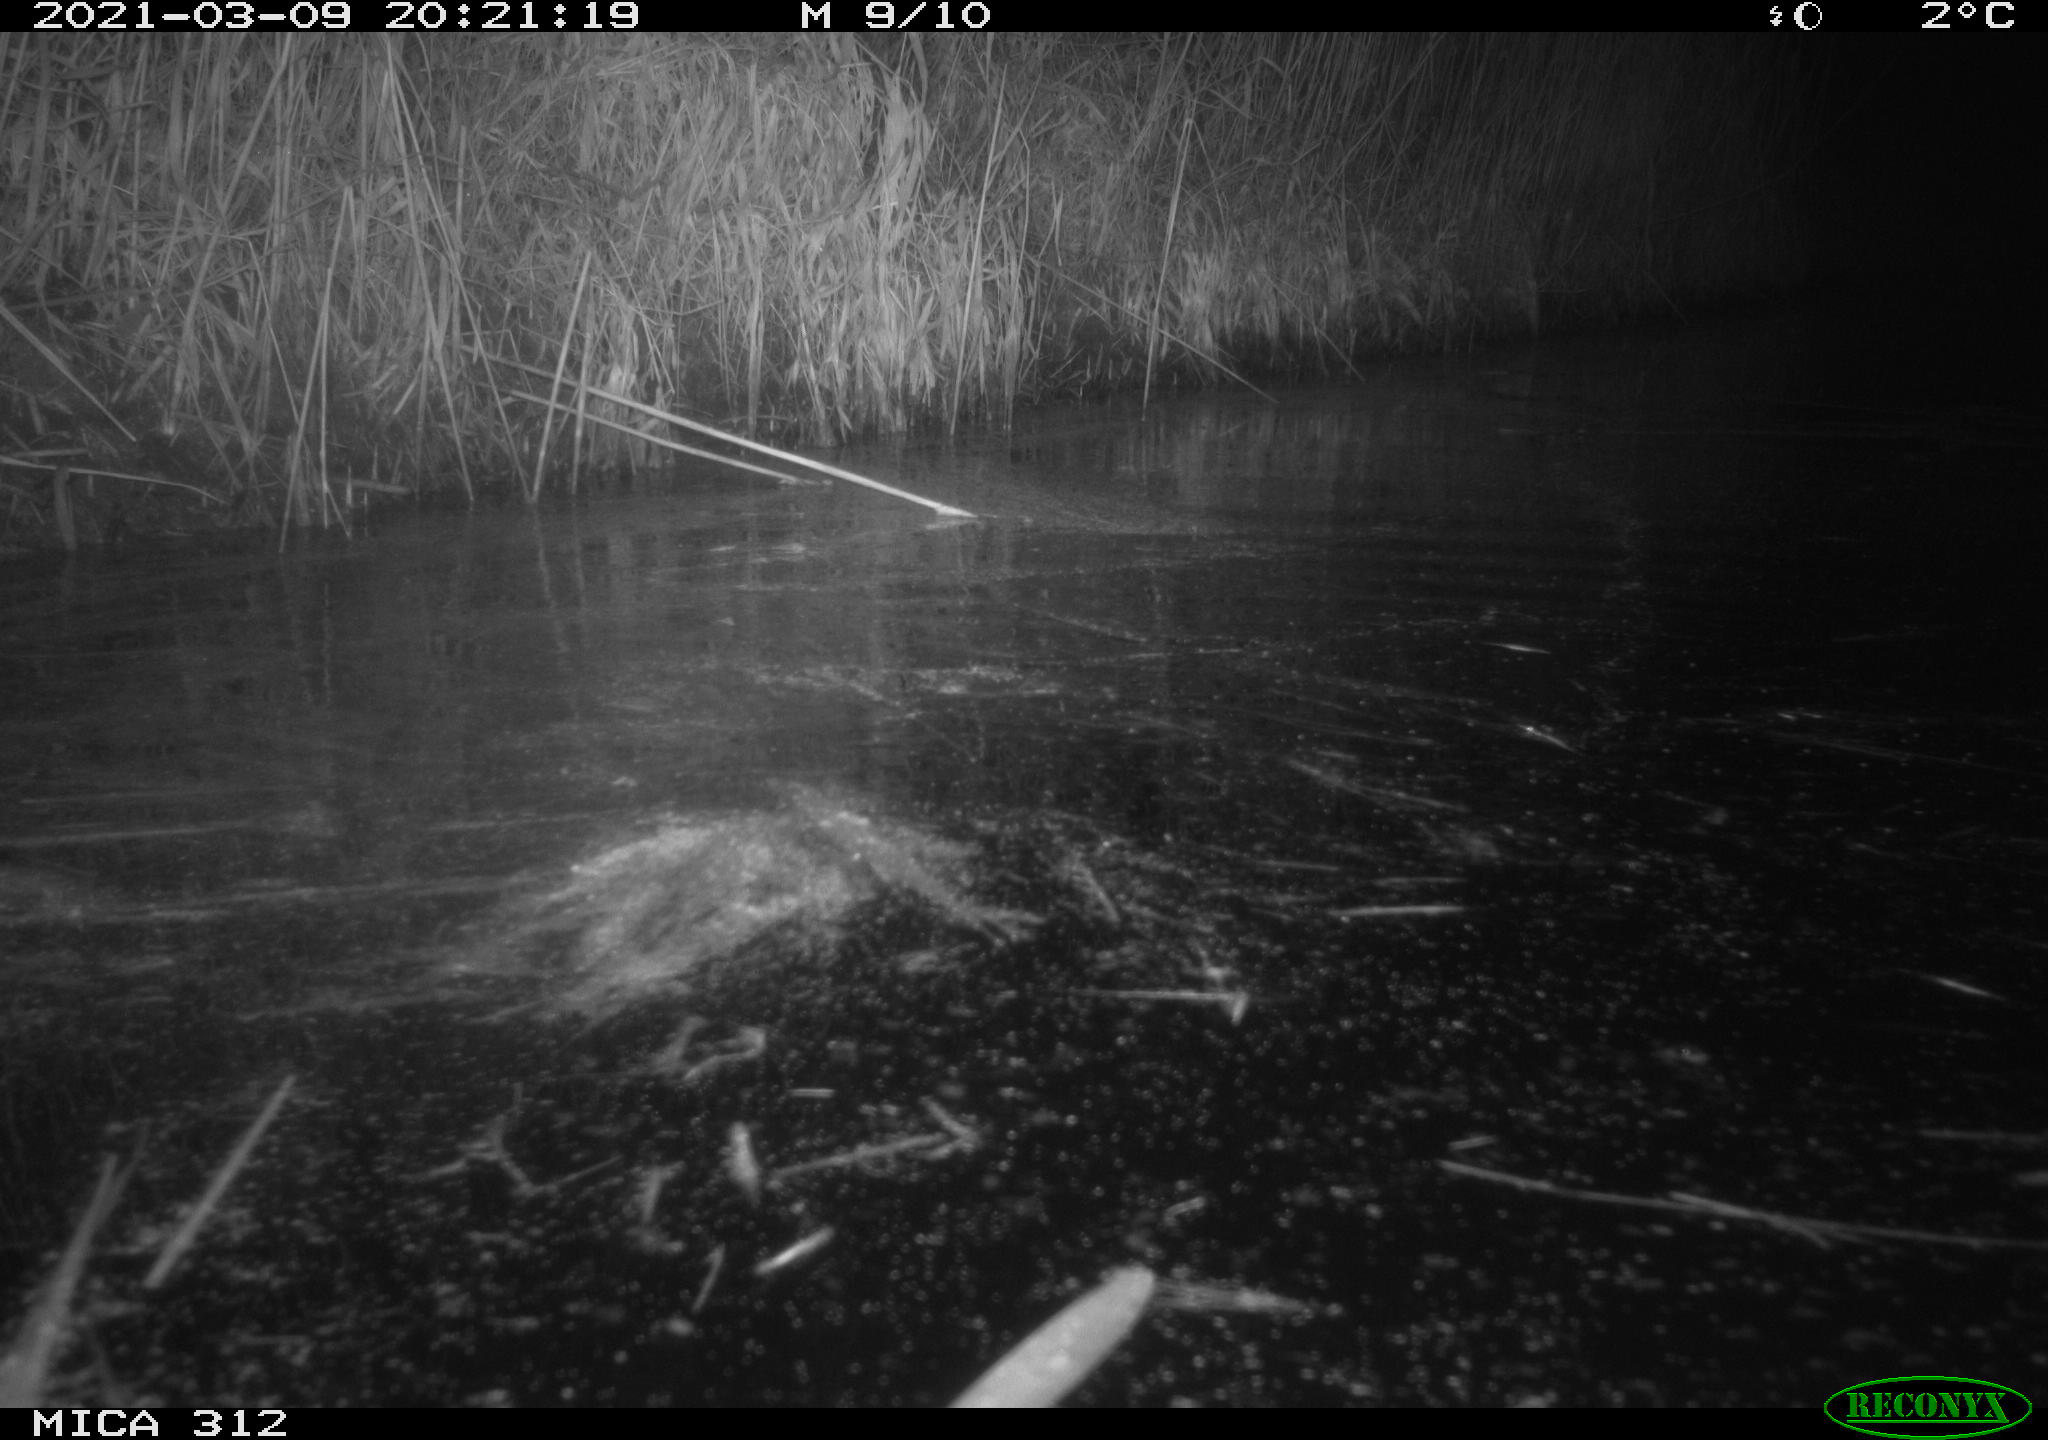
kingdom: Animalia
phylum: Chordata
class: Mammalia
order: Rodentia
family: Cricetidae
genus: Ondatra
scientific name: Ondatra zibethicus
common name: Muskrat
